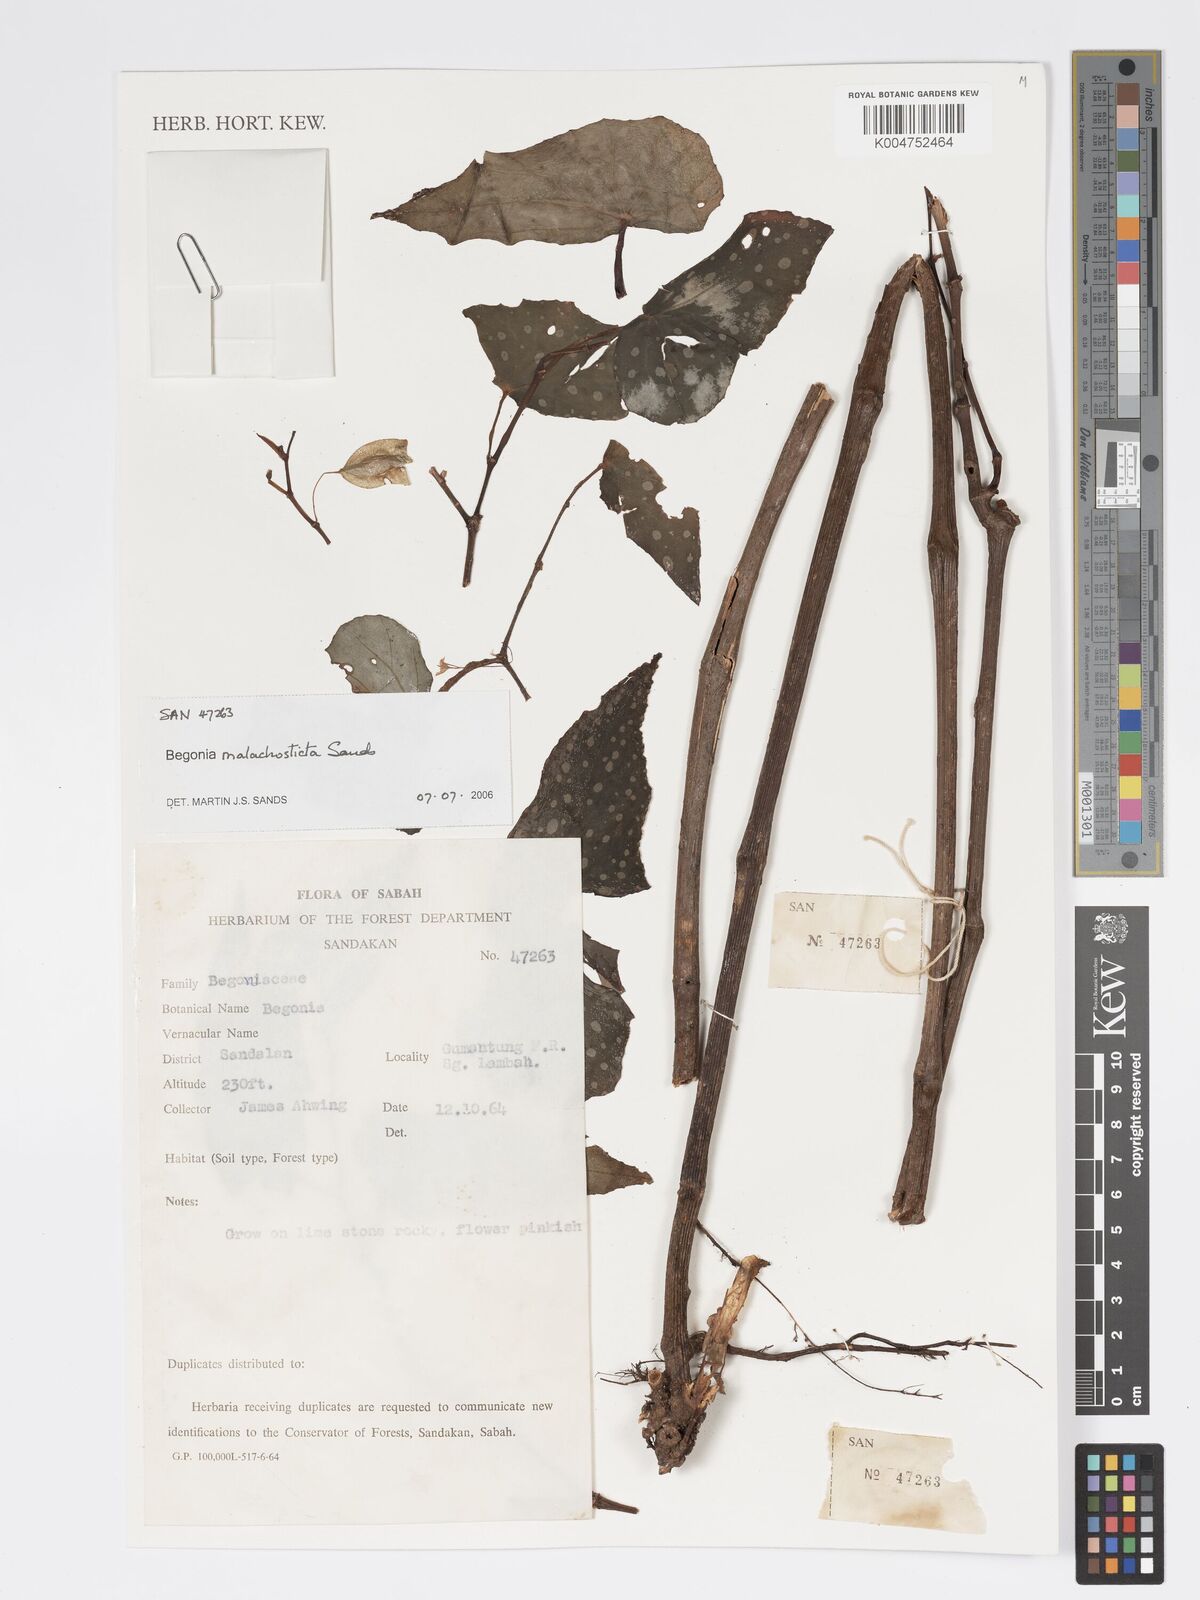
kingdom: Plantae
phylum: Tracheophyta
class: Magnoliopsida
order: Cucurbitales
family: Begoniaceae
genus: Begonia
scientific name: Begonia malachosticta
